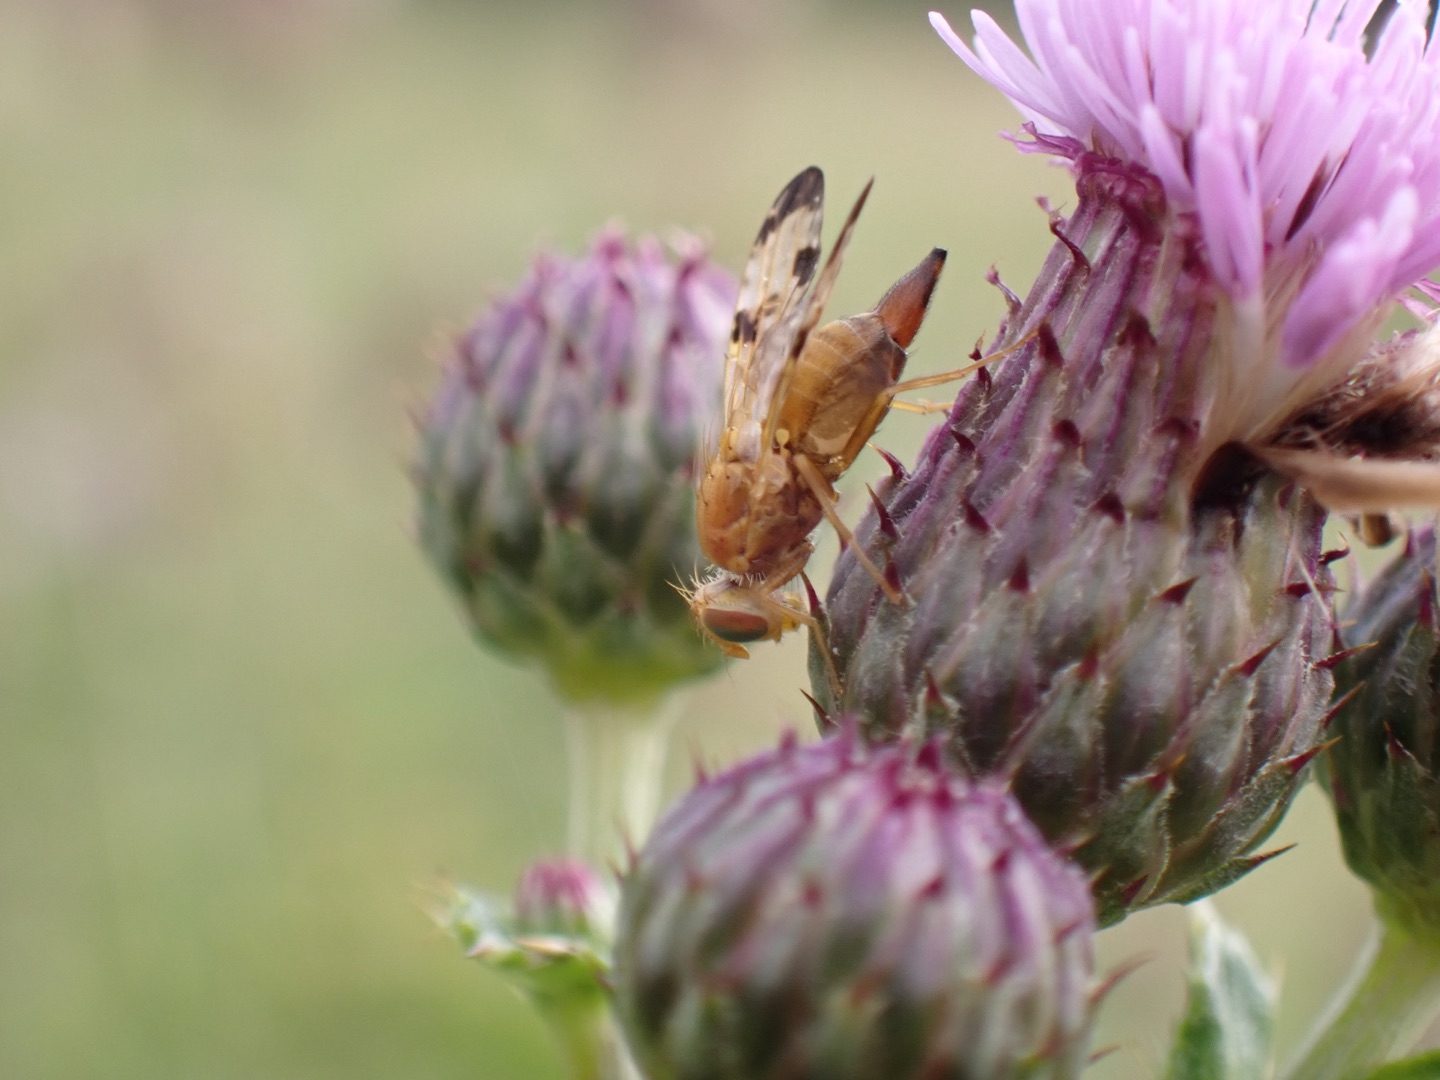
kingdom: Animalia
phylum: Arthropoda
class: Insecta
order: Diptera
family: Tephritidae
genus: Xyphosia
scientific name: Xyphosia miliaria
